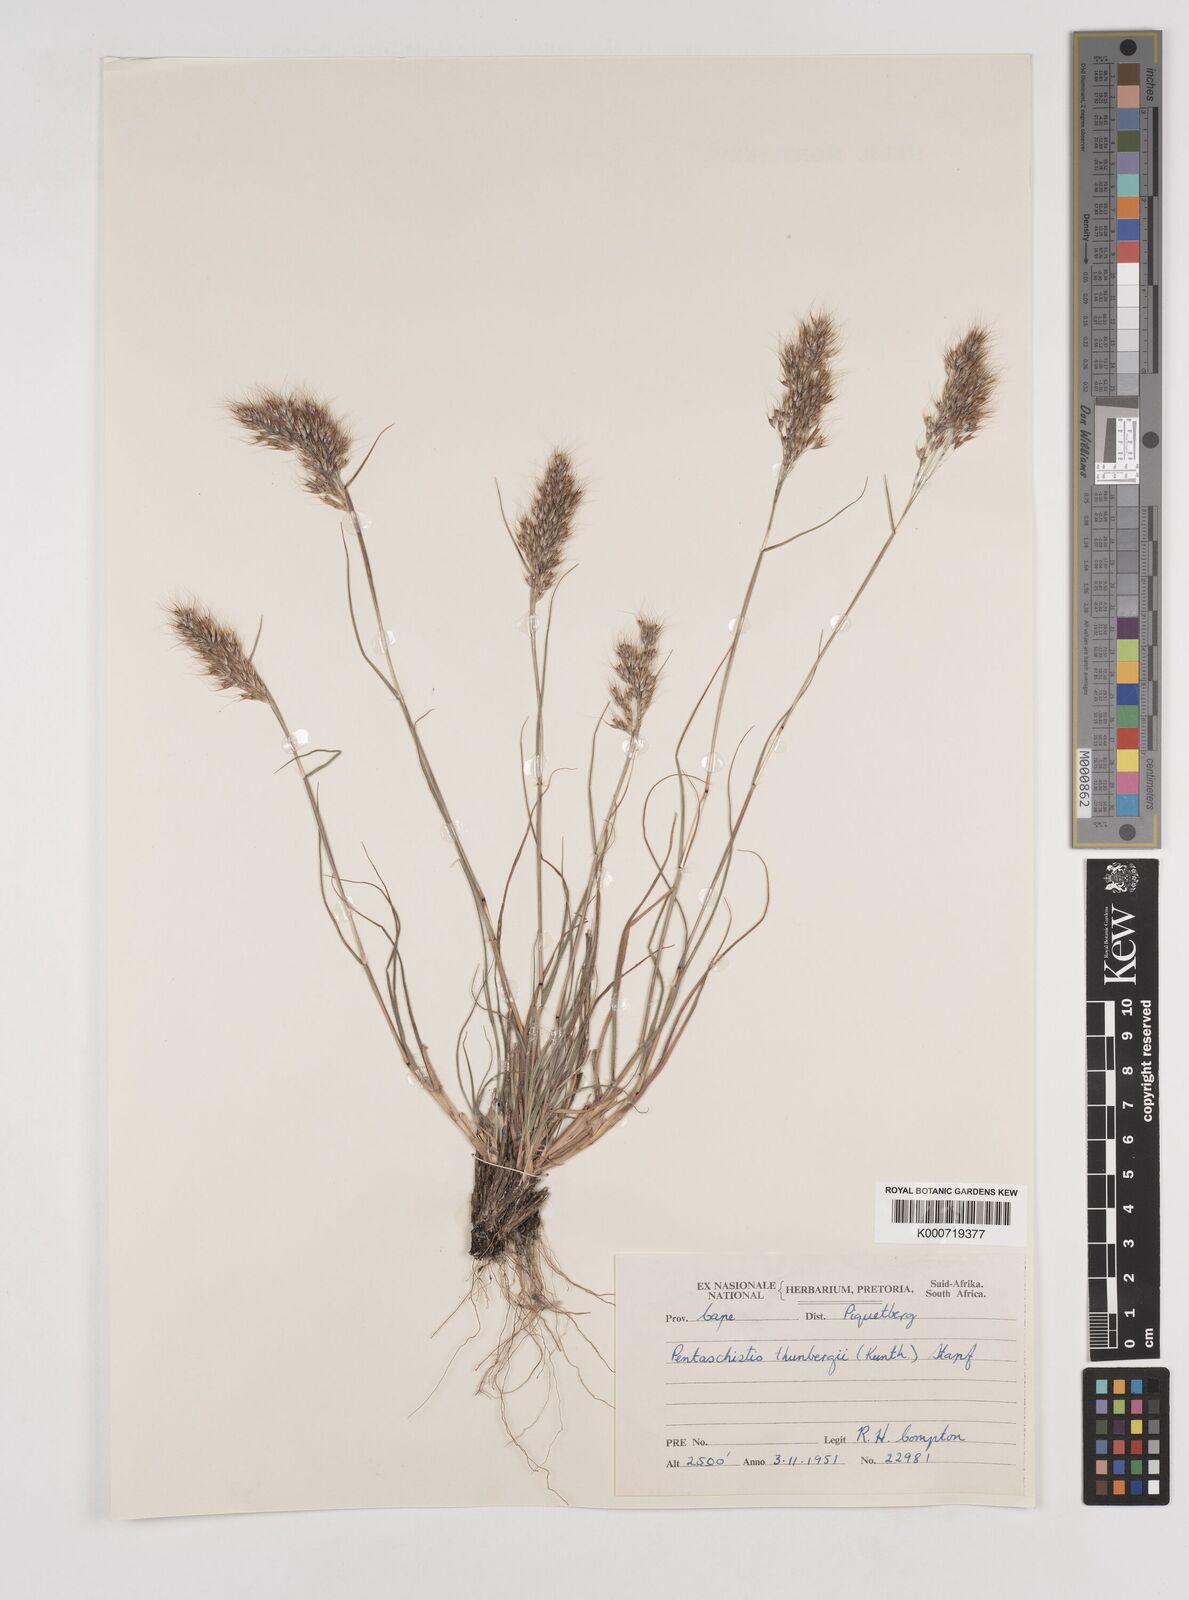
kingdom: Plantae
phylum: Tracheophyta
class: Liliopsida
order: Poales
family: Poaceae
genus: Pentameris
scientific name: Pentameris triseta
